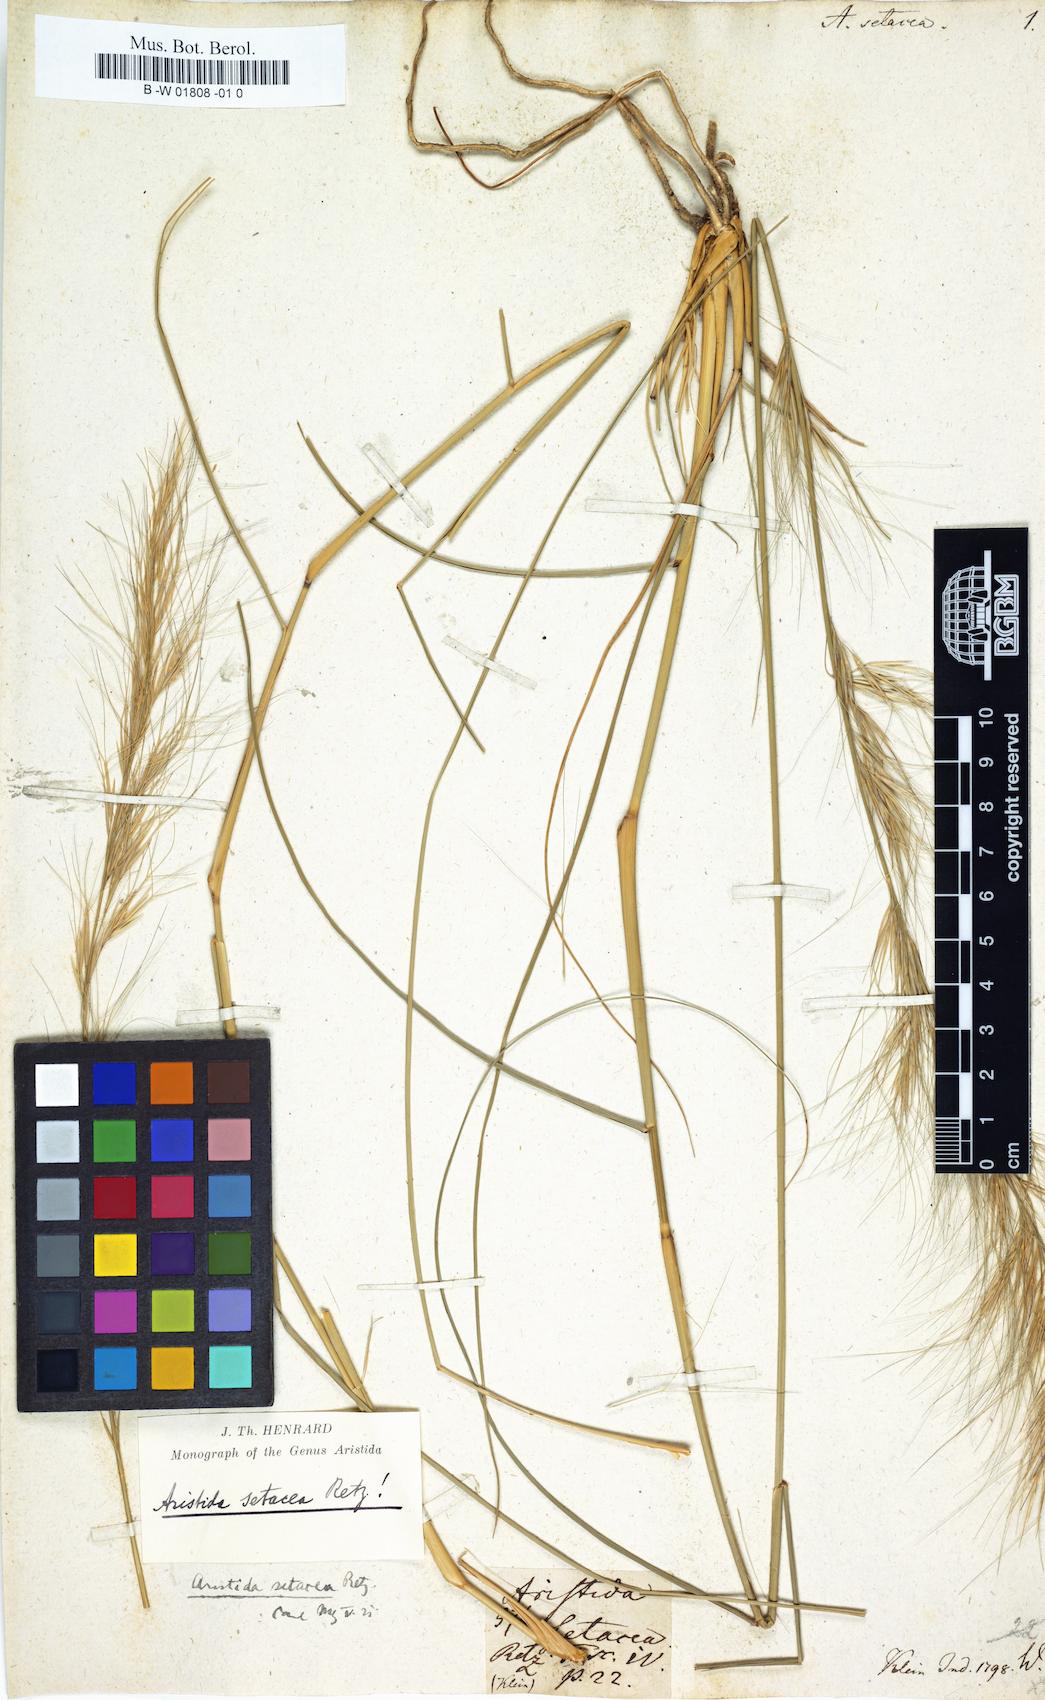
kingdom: Plantae
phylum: Tracheophyta
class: Liliopsida
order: Poales
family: Poaceae
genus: Aristida
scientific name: Aristida setacea
